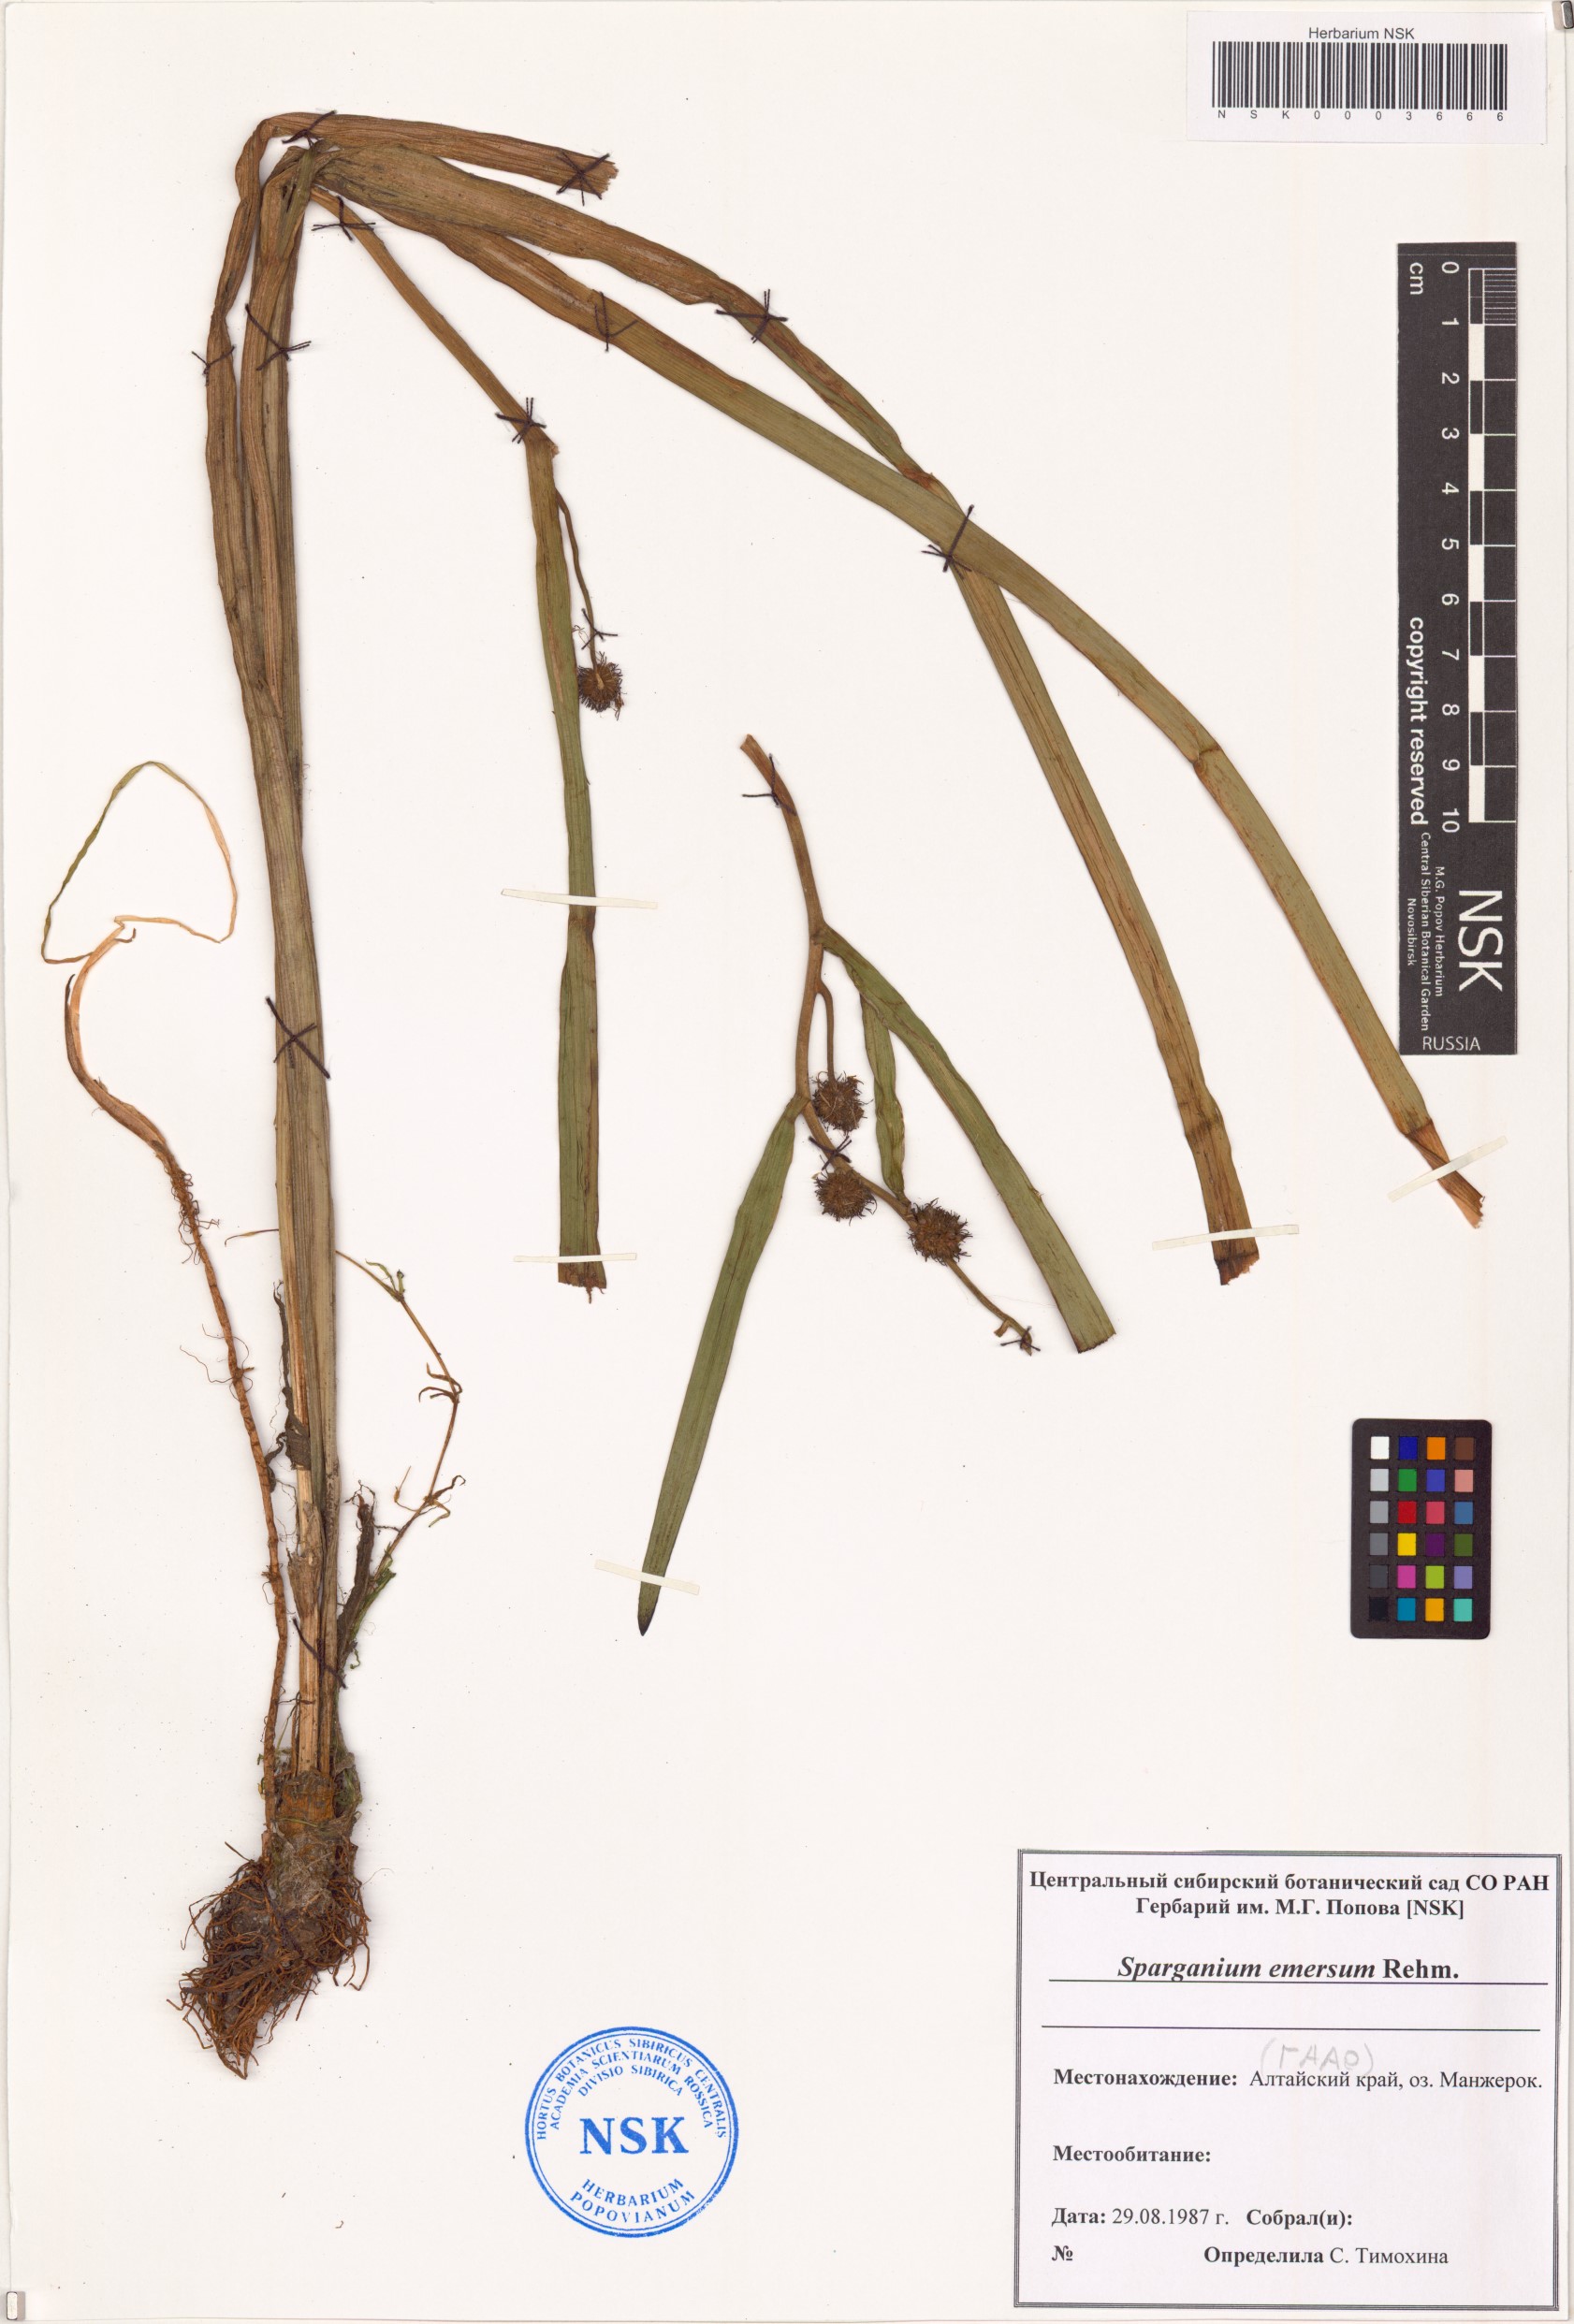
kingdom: Plantae
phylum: Tracheophyta
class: Liliopsida
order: Poales
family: Typhaceae
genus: Sparganium
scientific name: Sparganium emersum
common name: Unbranched bur-reed
